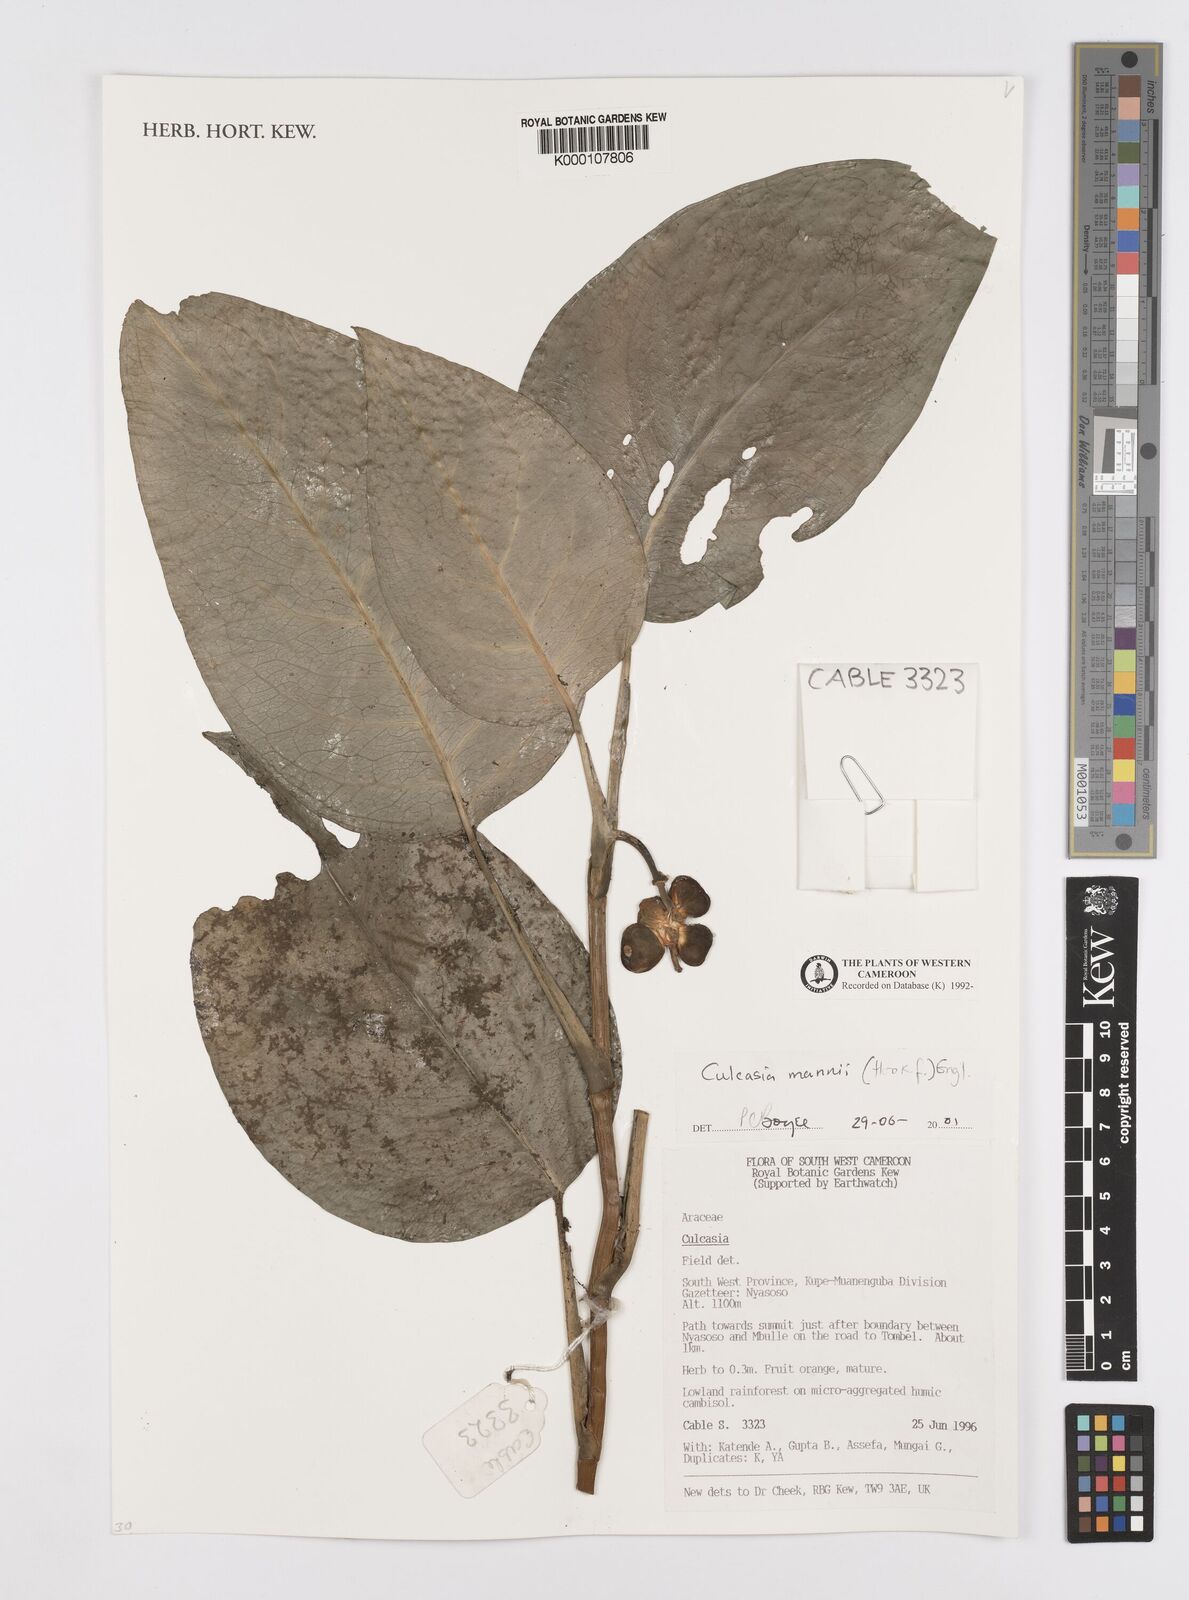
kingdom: Plantae
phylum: Tracheophyta
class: Liliopsida
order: Alismatales
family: Araceae
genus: Culcasia
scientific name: Culcasia mannii
